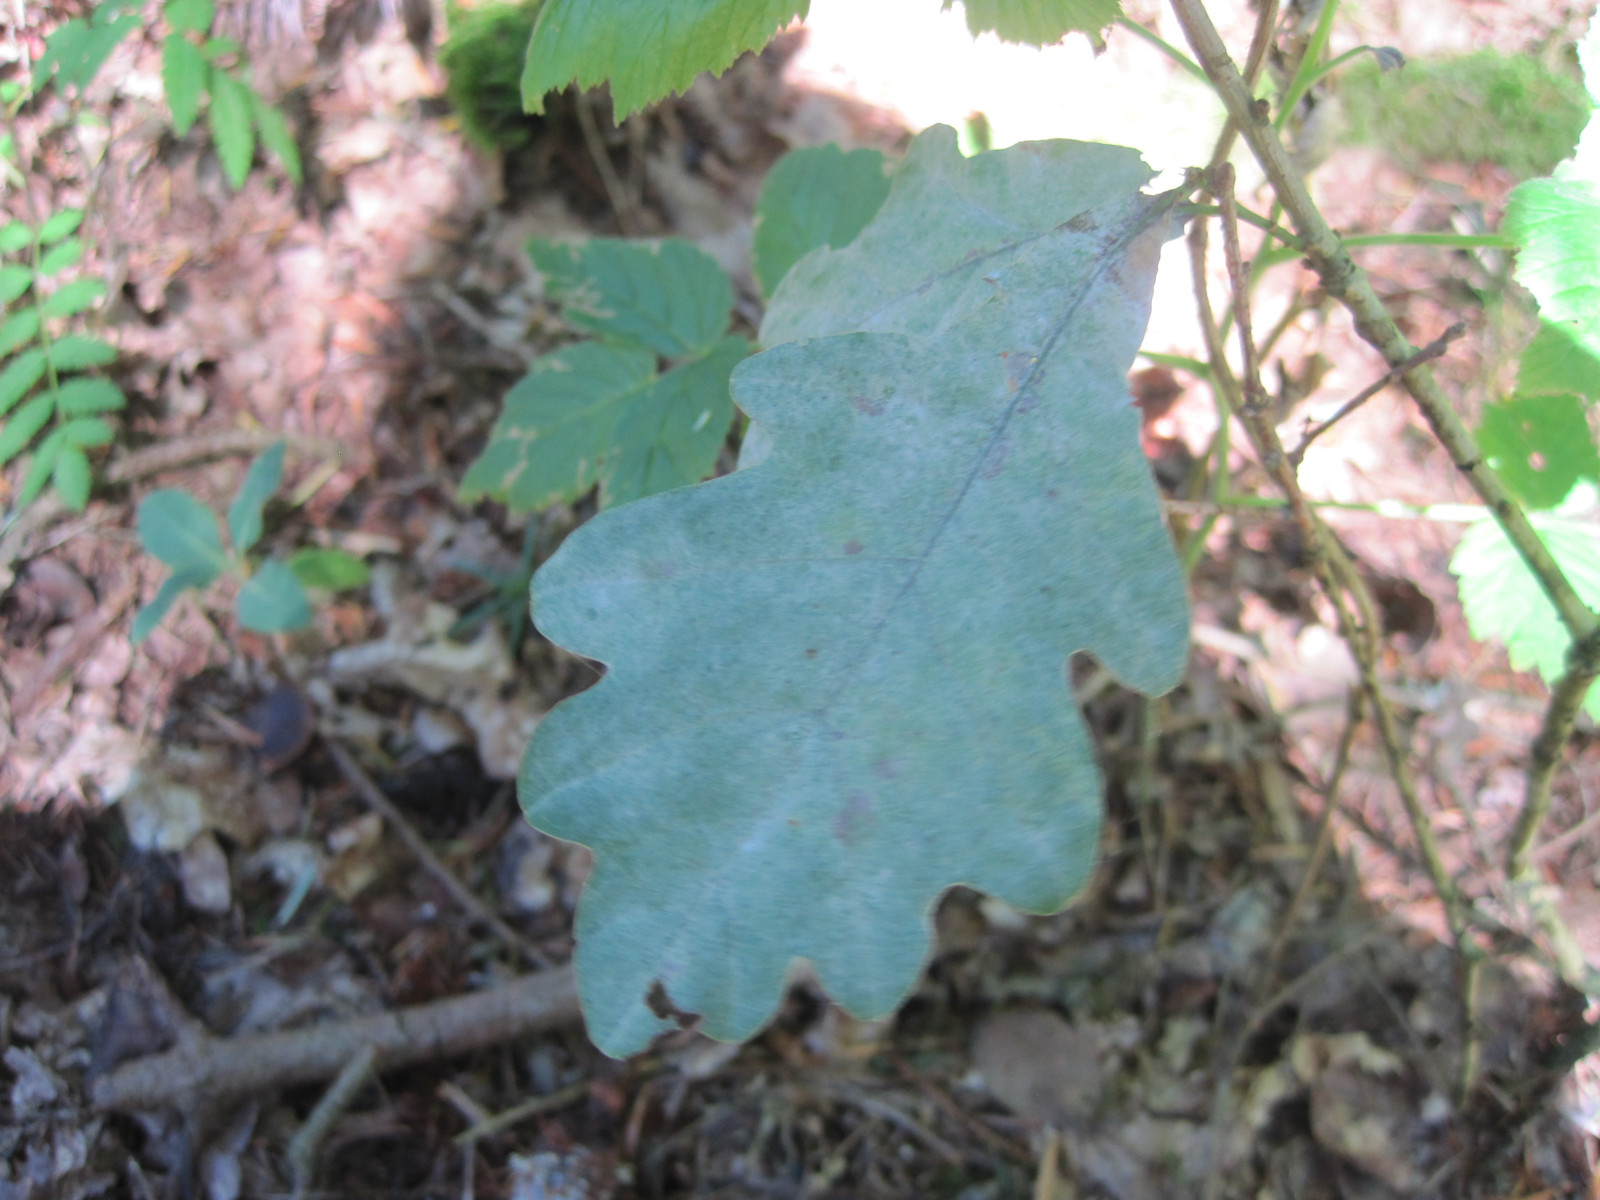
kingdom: Fungi
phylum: Ascomycota
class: Leotiomycetes
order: Helotiales
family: Erysiphaceae
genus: Erysiphe
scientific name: Erysiphe alphitoides
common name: ege-meldug
